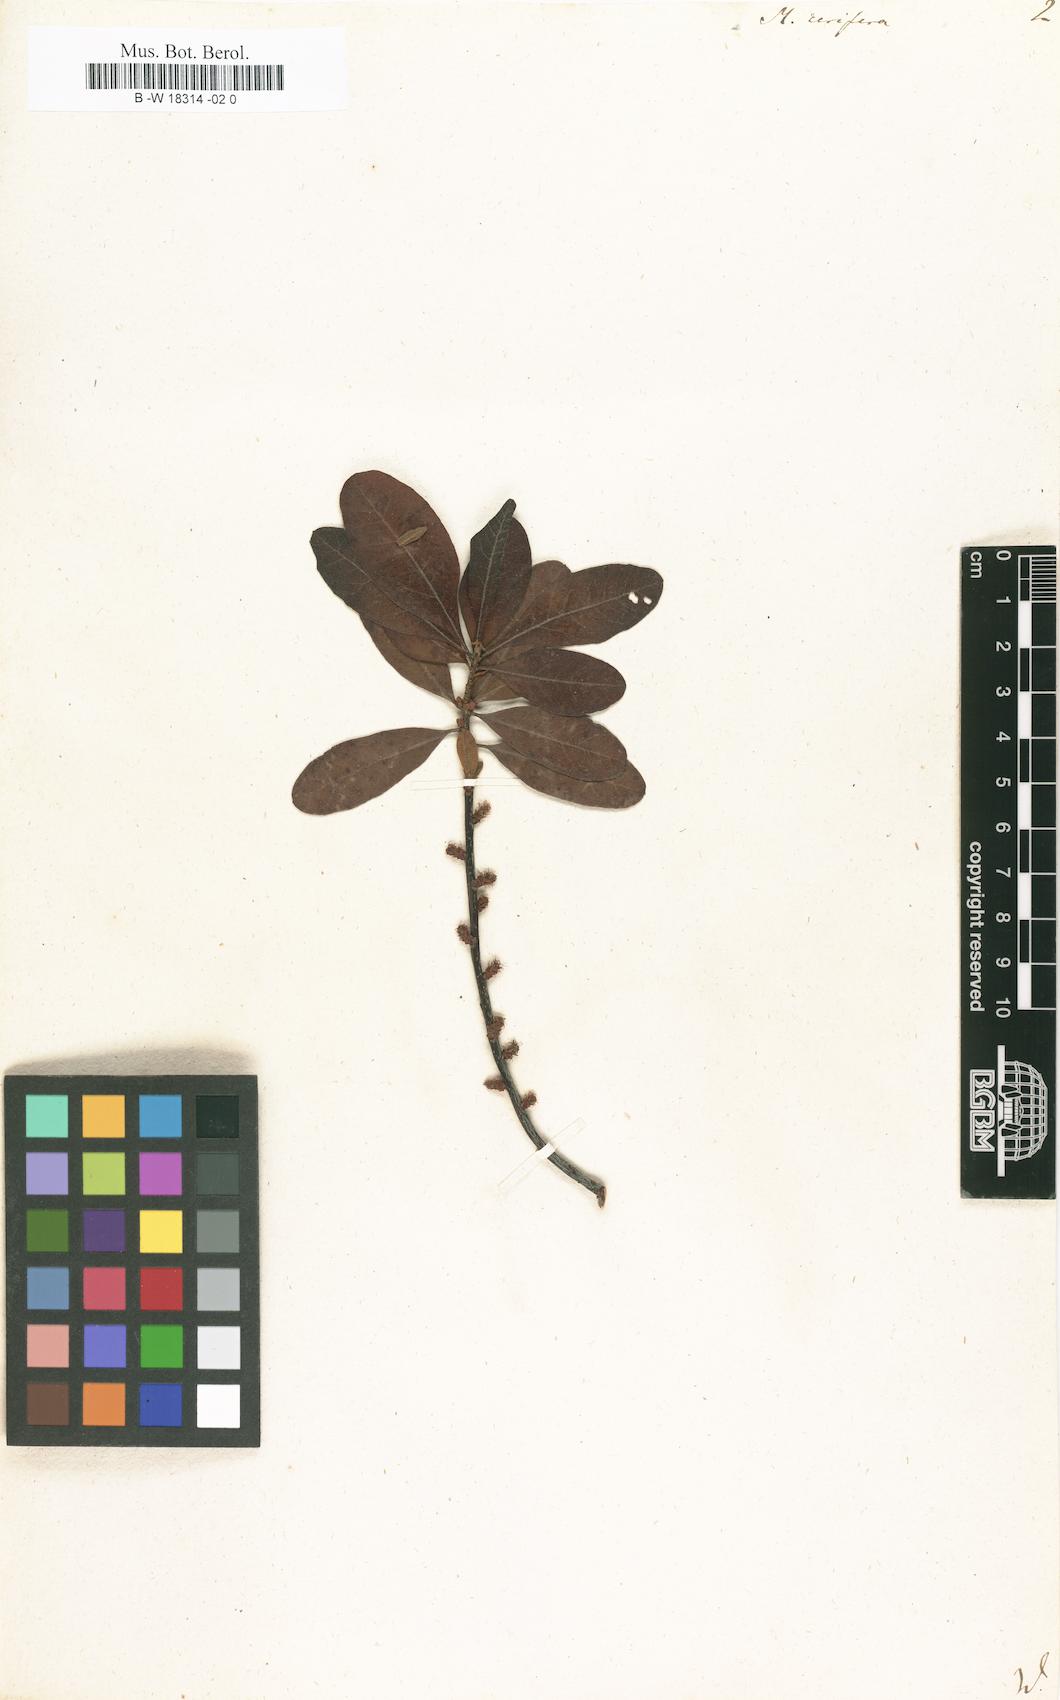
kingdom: Plantae
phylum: Tracheophyta
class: Magnoliopsida
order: Fagales
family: Myricaceae
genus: Morella
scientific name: Morella cerifera
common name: Wax myrtle
